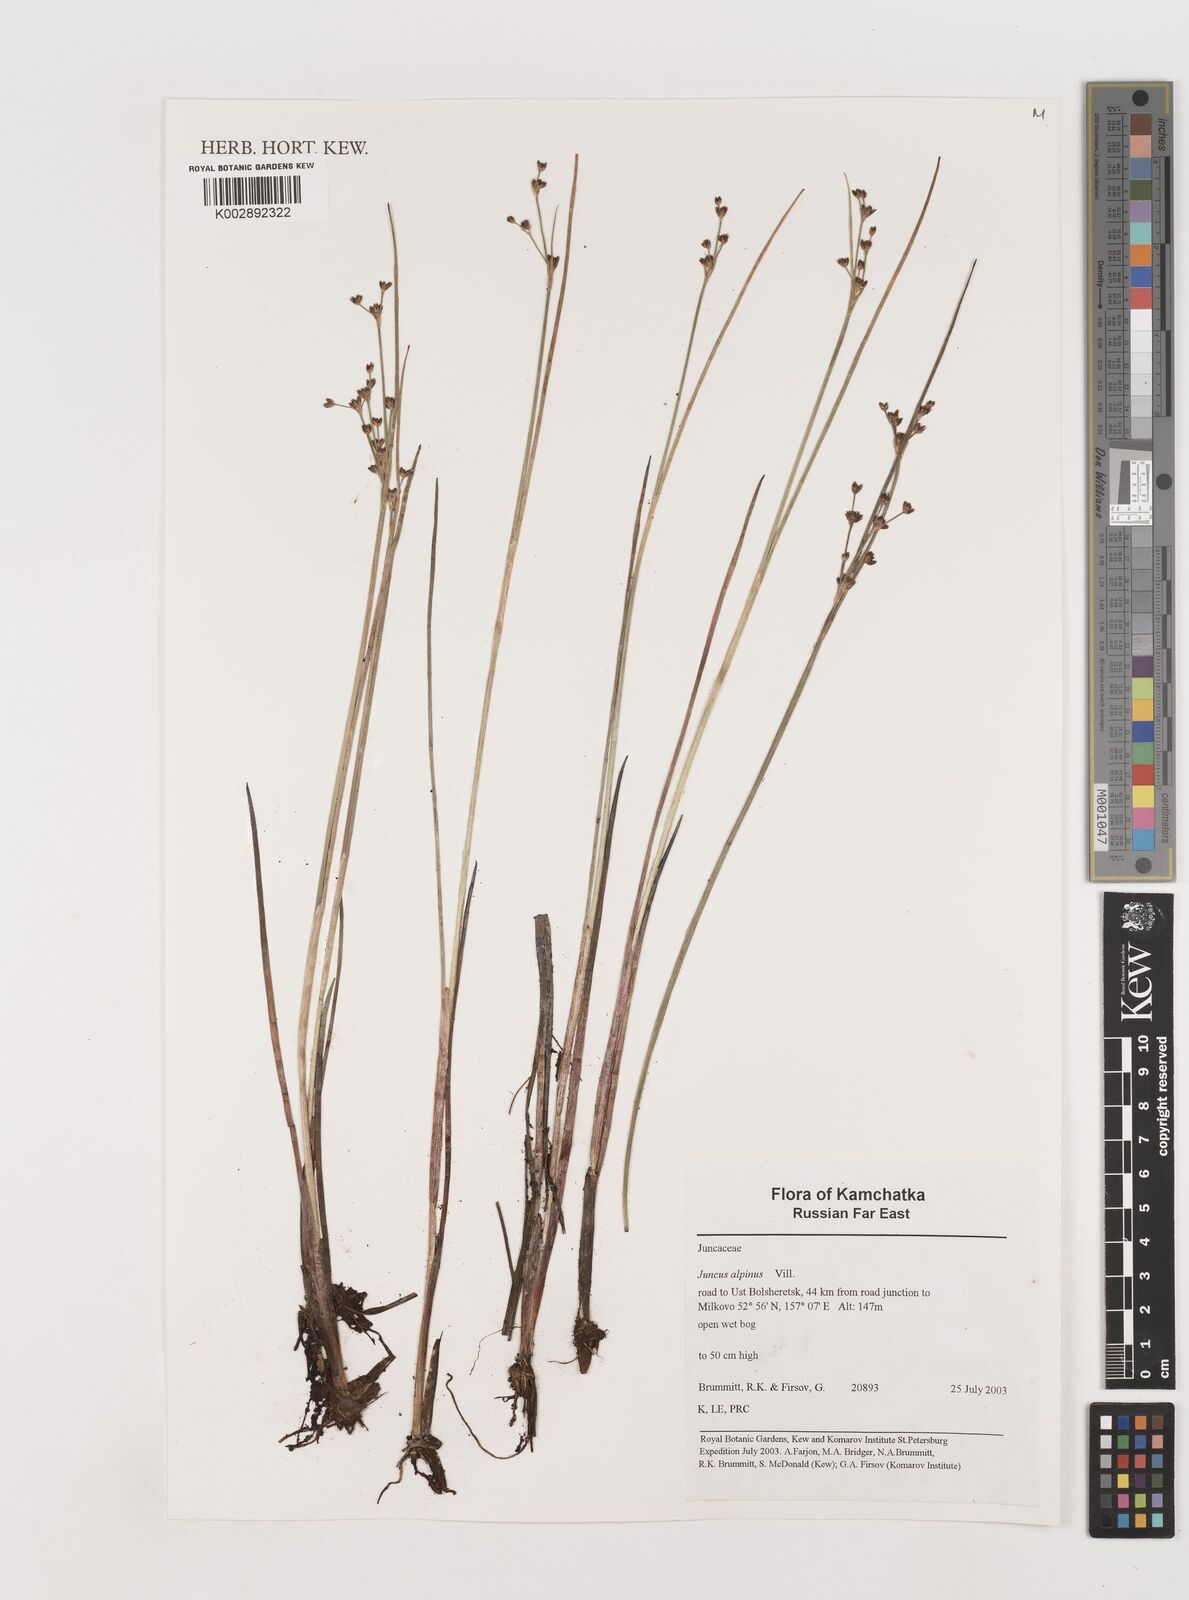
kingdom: Plantae
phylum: Tracheophyta
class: Liliopsida
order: Poales
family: Juncaceae
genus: Juncus
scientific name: Juncus alpinoarticulatus
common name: Alpine rush
